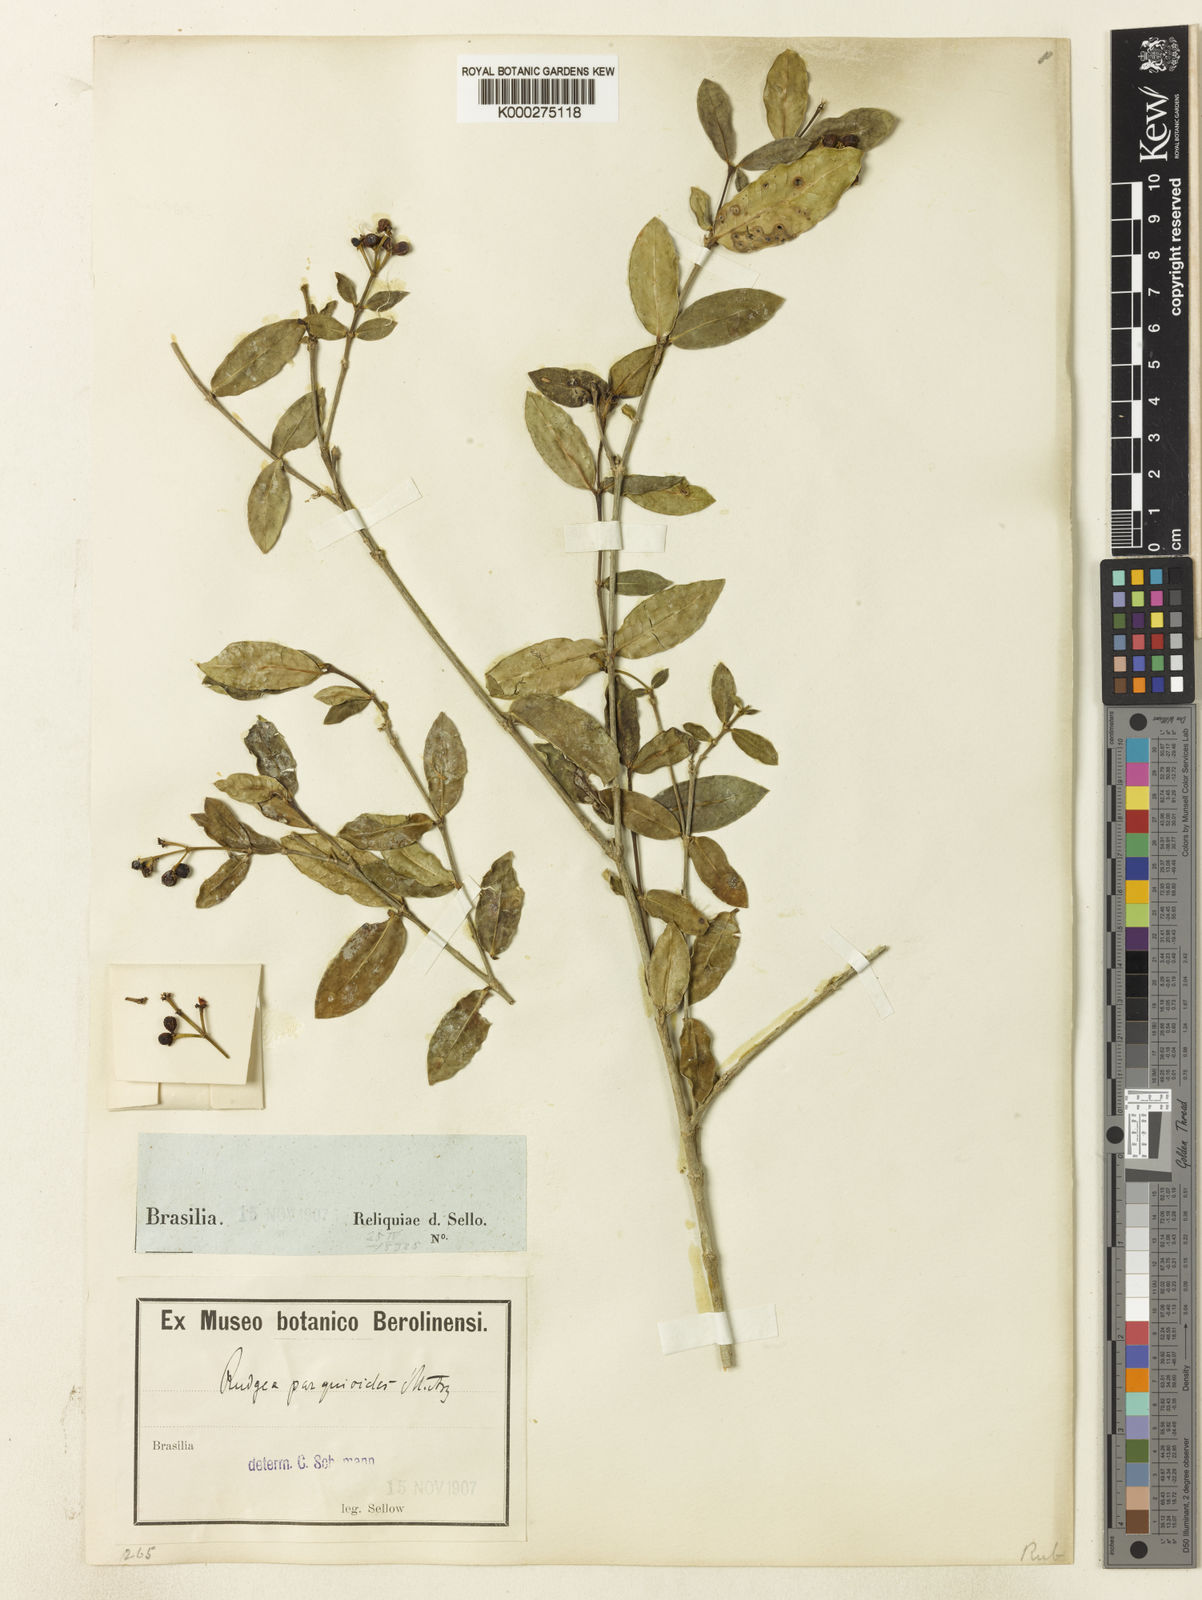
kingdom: Plantae
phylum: Tracheophyta
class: Magnoliopsida
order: Gentianales
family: Rubiaceae
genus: Rudgea
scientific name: Rudgea
